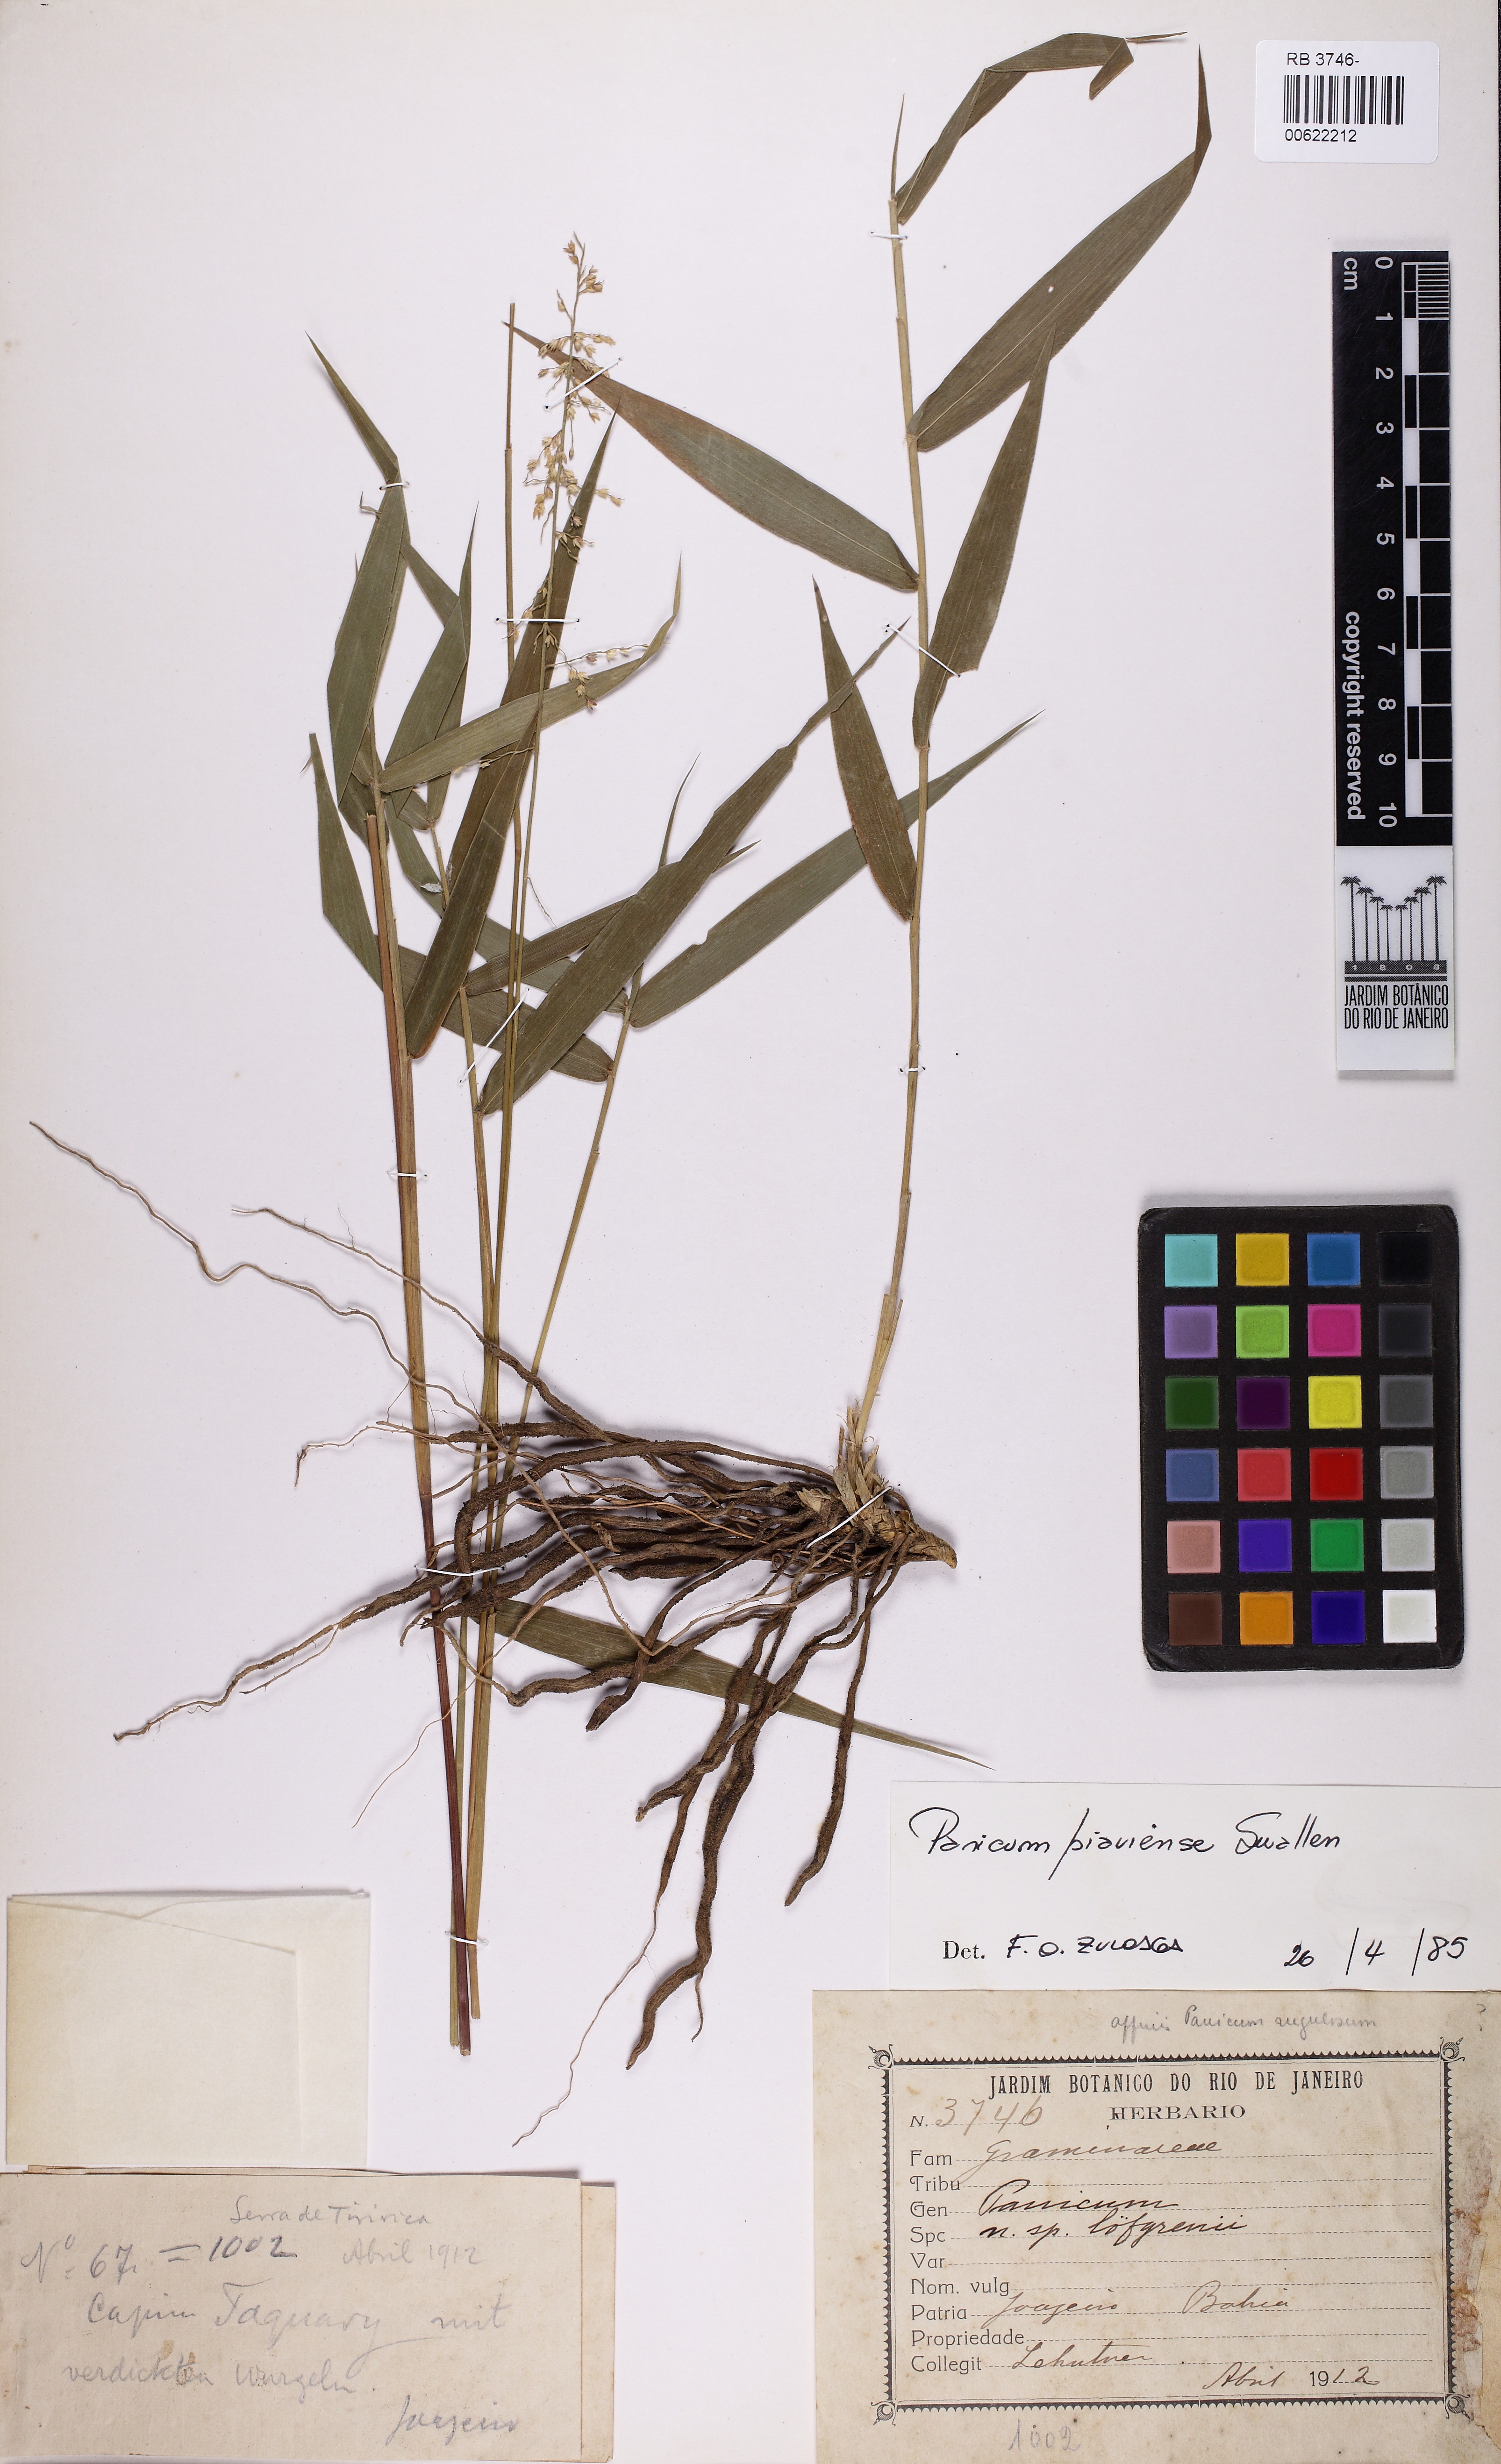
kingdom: Plantae
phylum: Tracheophyta
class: Liliopsida
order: Poales
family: Poaceae
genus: Ocellochloa
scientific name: Ocellochloa gardneri
